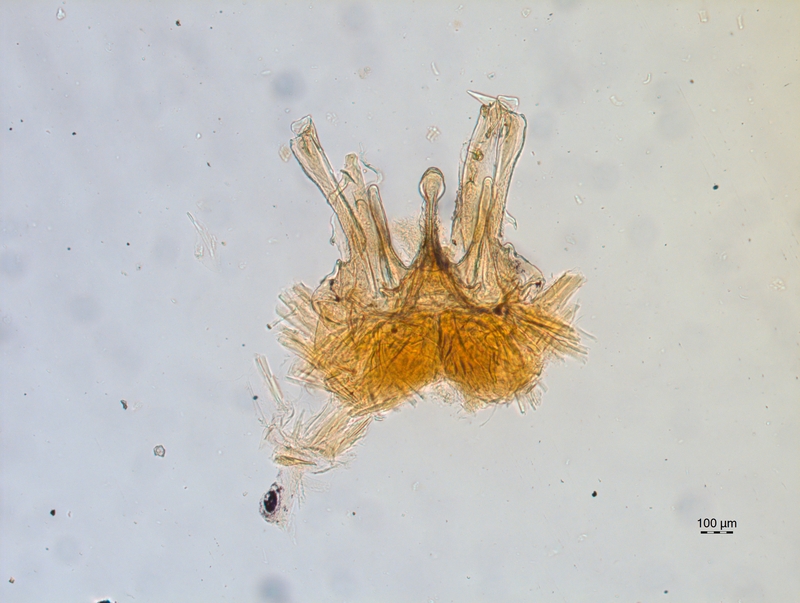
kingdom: Animalia
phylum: Arthropoda
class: Diplopoda
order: Chordeumatida
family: Chordeumatidae
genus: Chordeuma
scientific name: Chordeuma sylvestre
